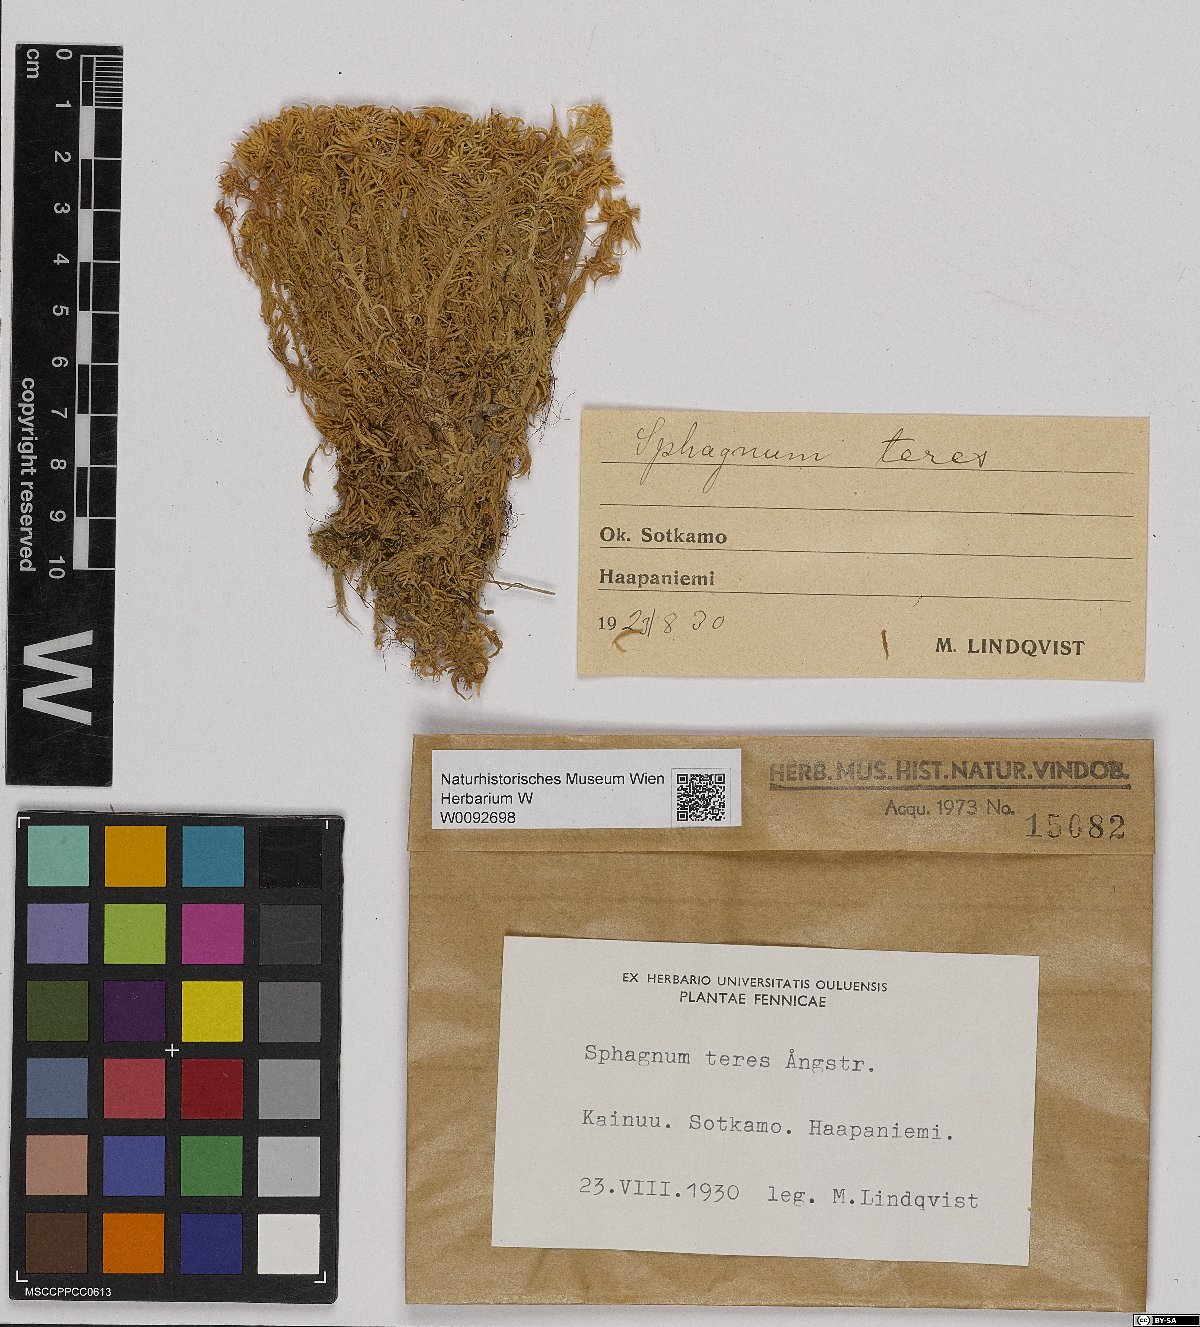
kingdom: Plantae
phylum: Bryophyta
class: Sphagnopsida
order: Sphagnales
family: Sphagnaceae
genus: Sphagnum
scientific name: Sphagnum teres
